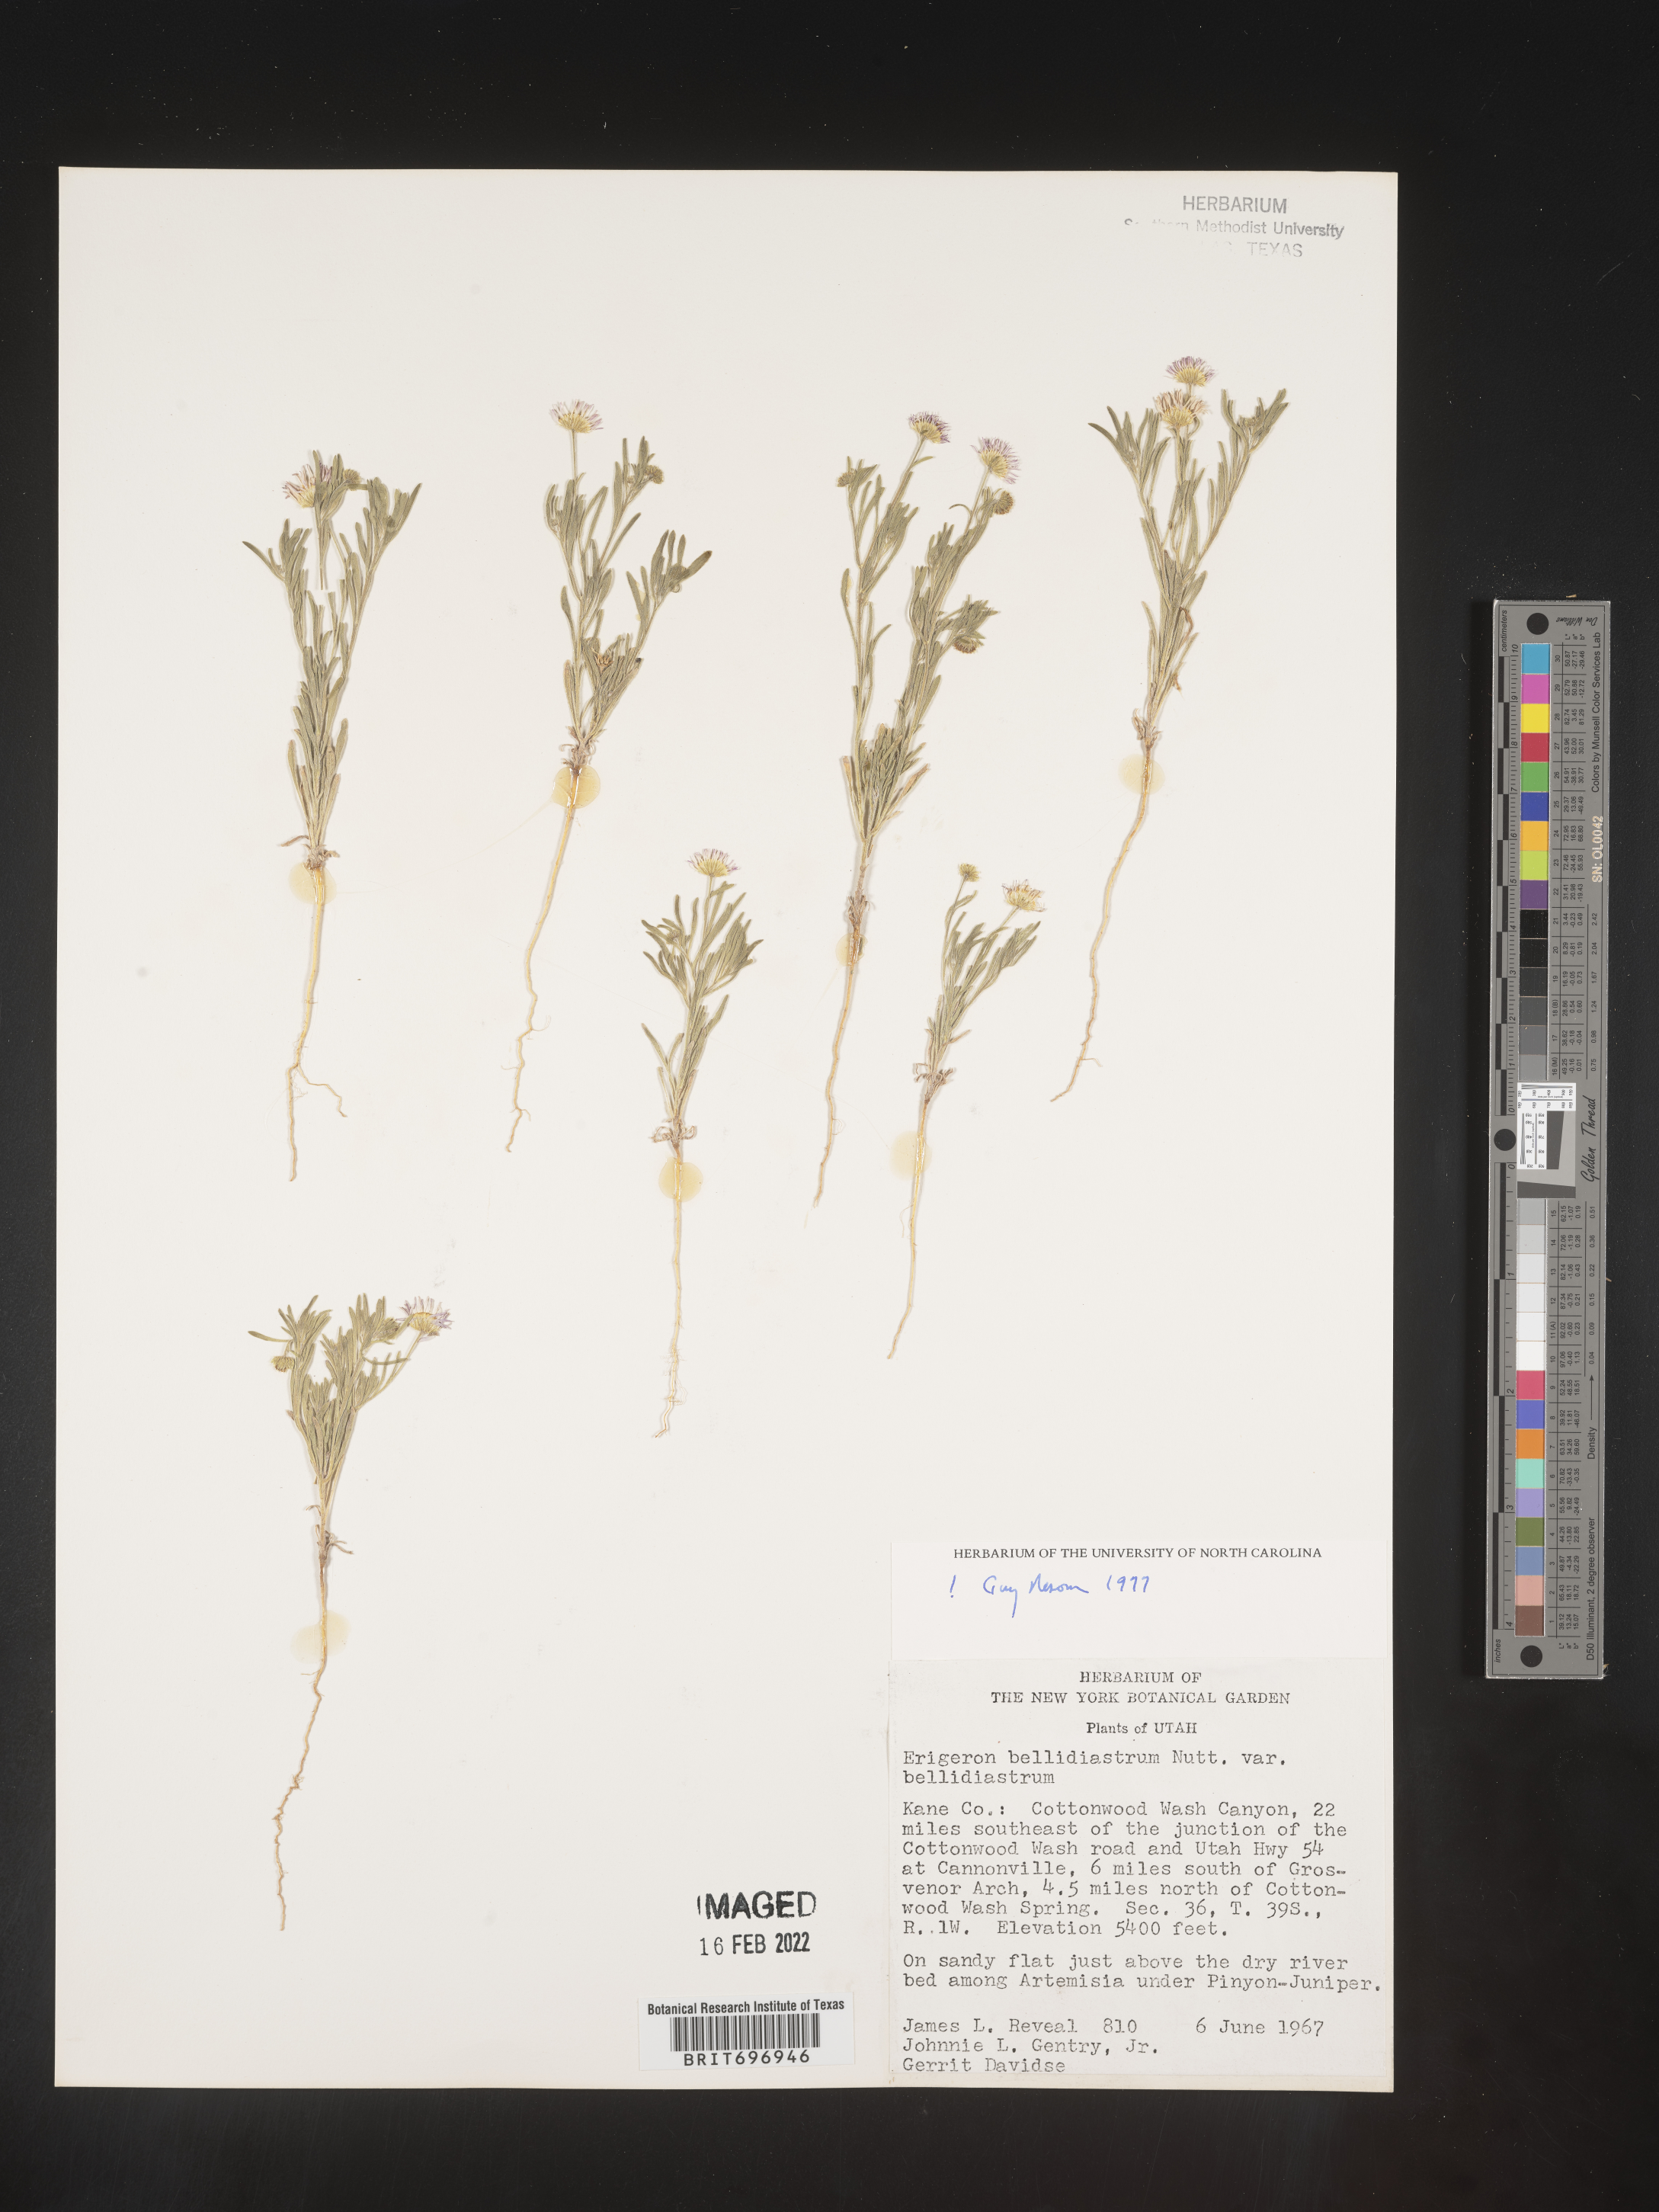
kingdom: Plantae
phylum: Tracheophyta
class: Magnoliopsida
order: Asterales
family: Asteraceae
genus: Erigeron
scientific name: Erigeron bellidiastrum
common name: Sand fleabane
